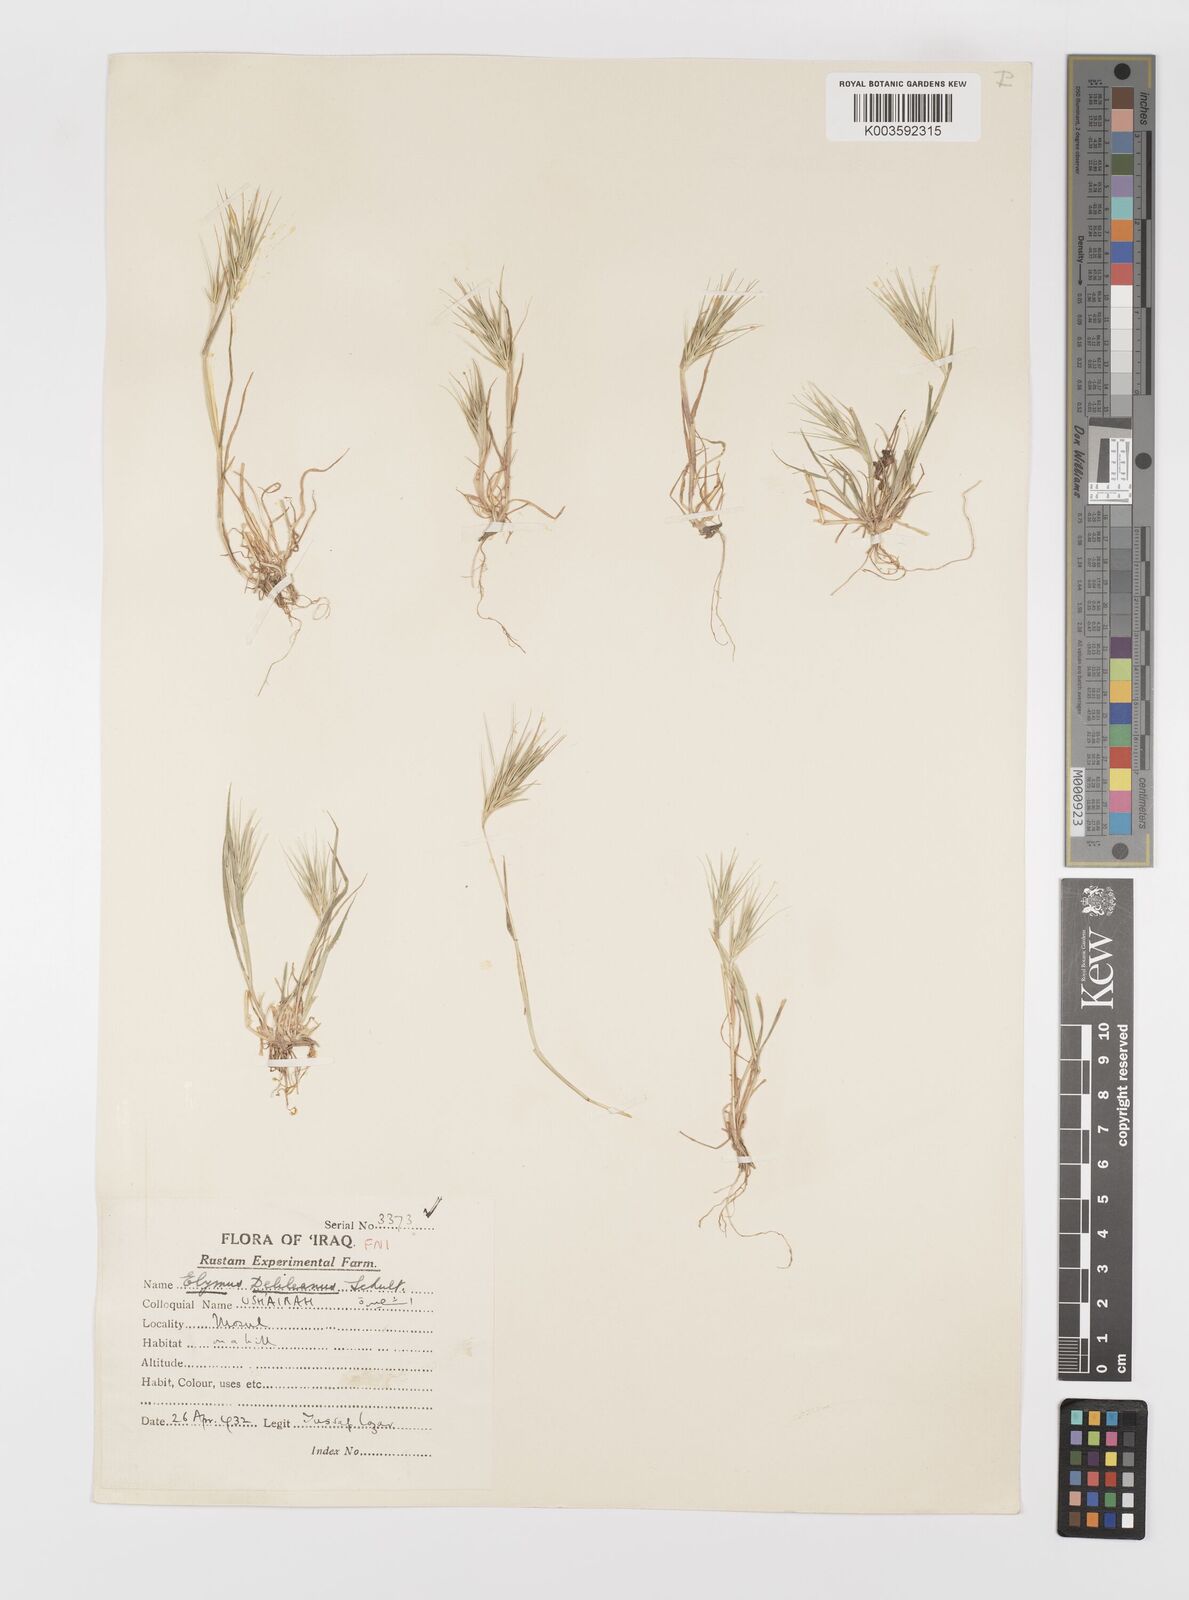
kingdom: Plantae
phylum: Tracheophyta
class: Liliopsida
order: Poales
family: Poaceae
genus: Crithopsis
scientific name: Crithopsis delileana
